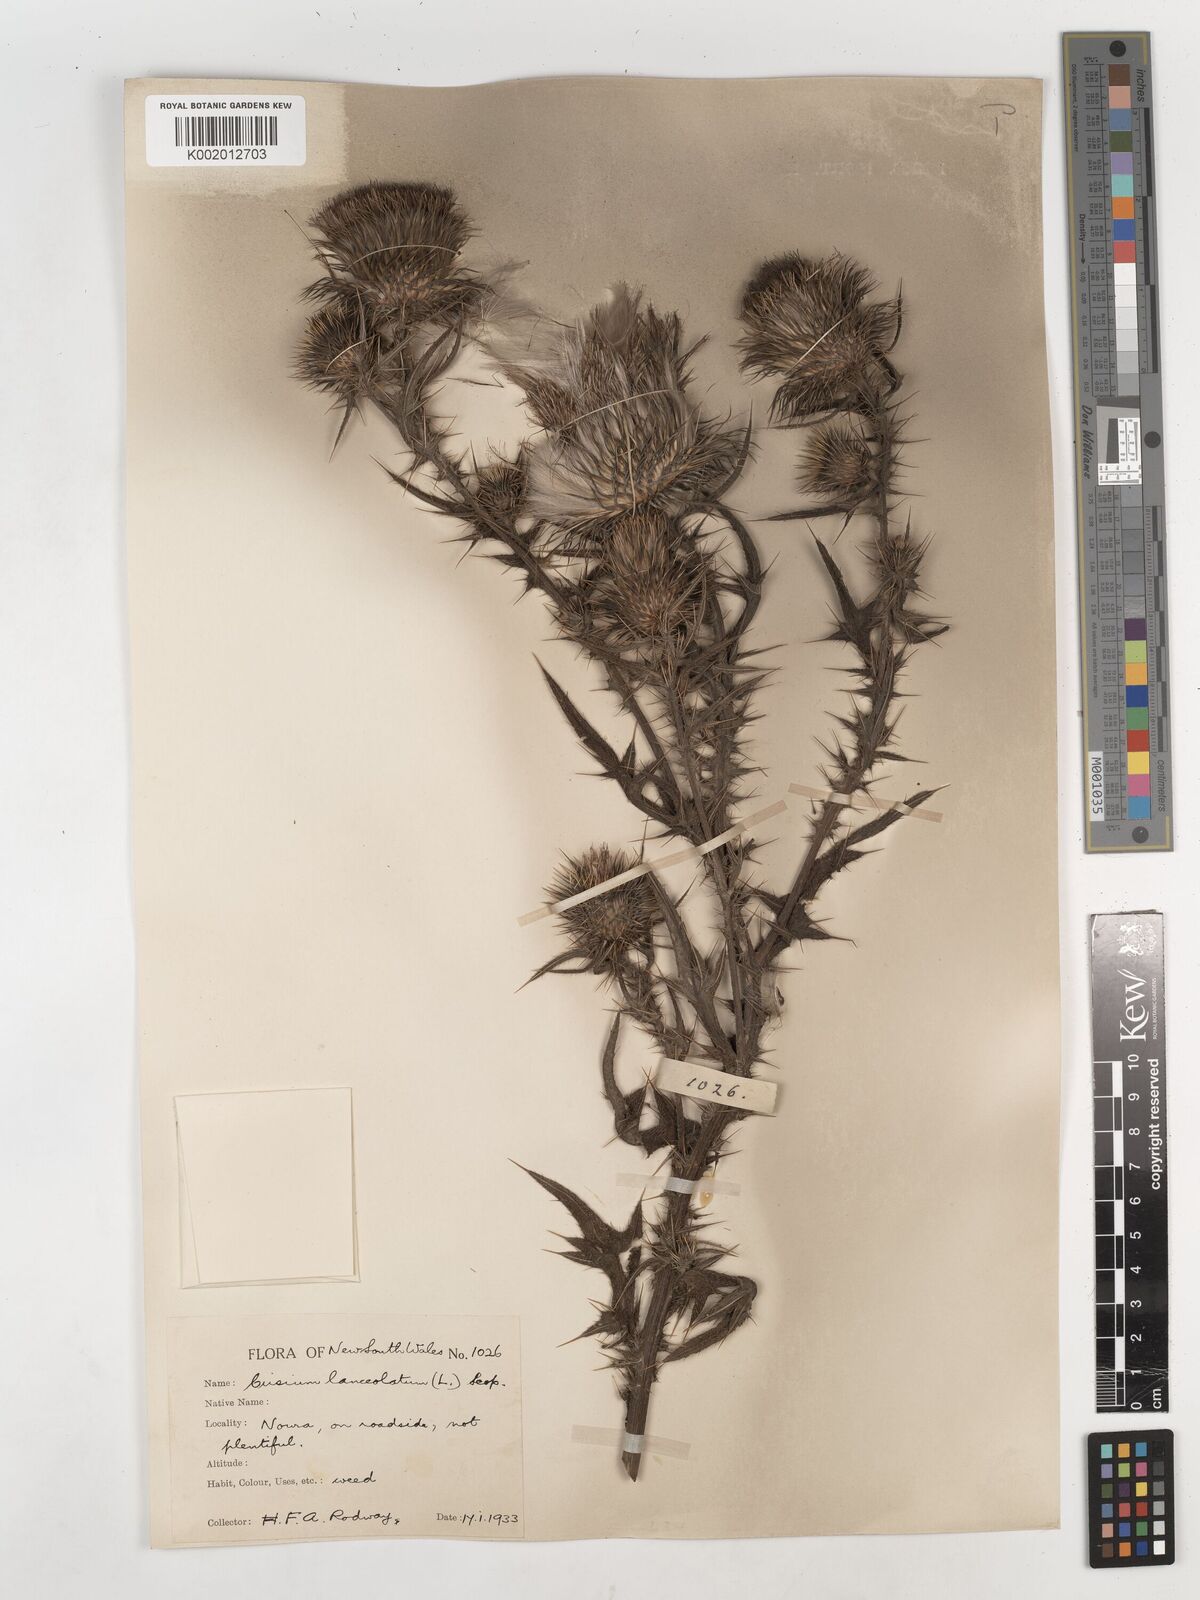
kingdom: Plantae
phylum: Tracheophyta
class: Magnoliopsida
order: Asterales
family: Asteraceae
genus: Cirsium
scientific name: Cirsium vulgare
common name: Bull thistle
